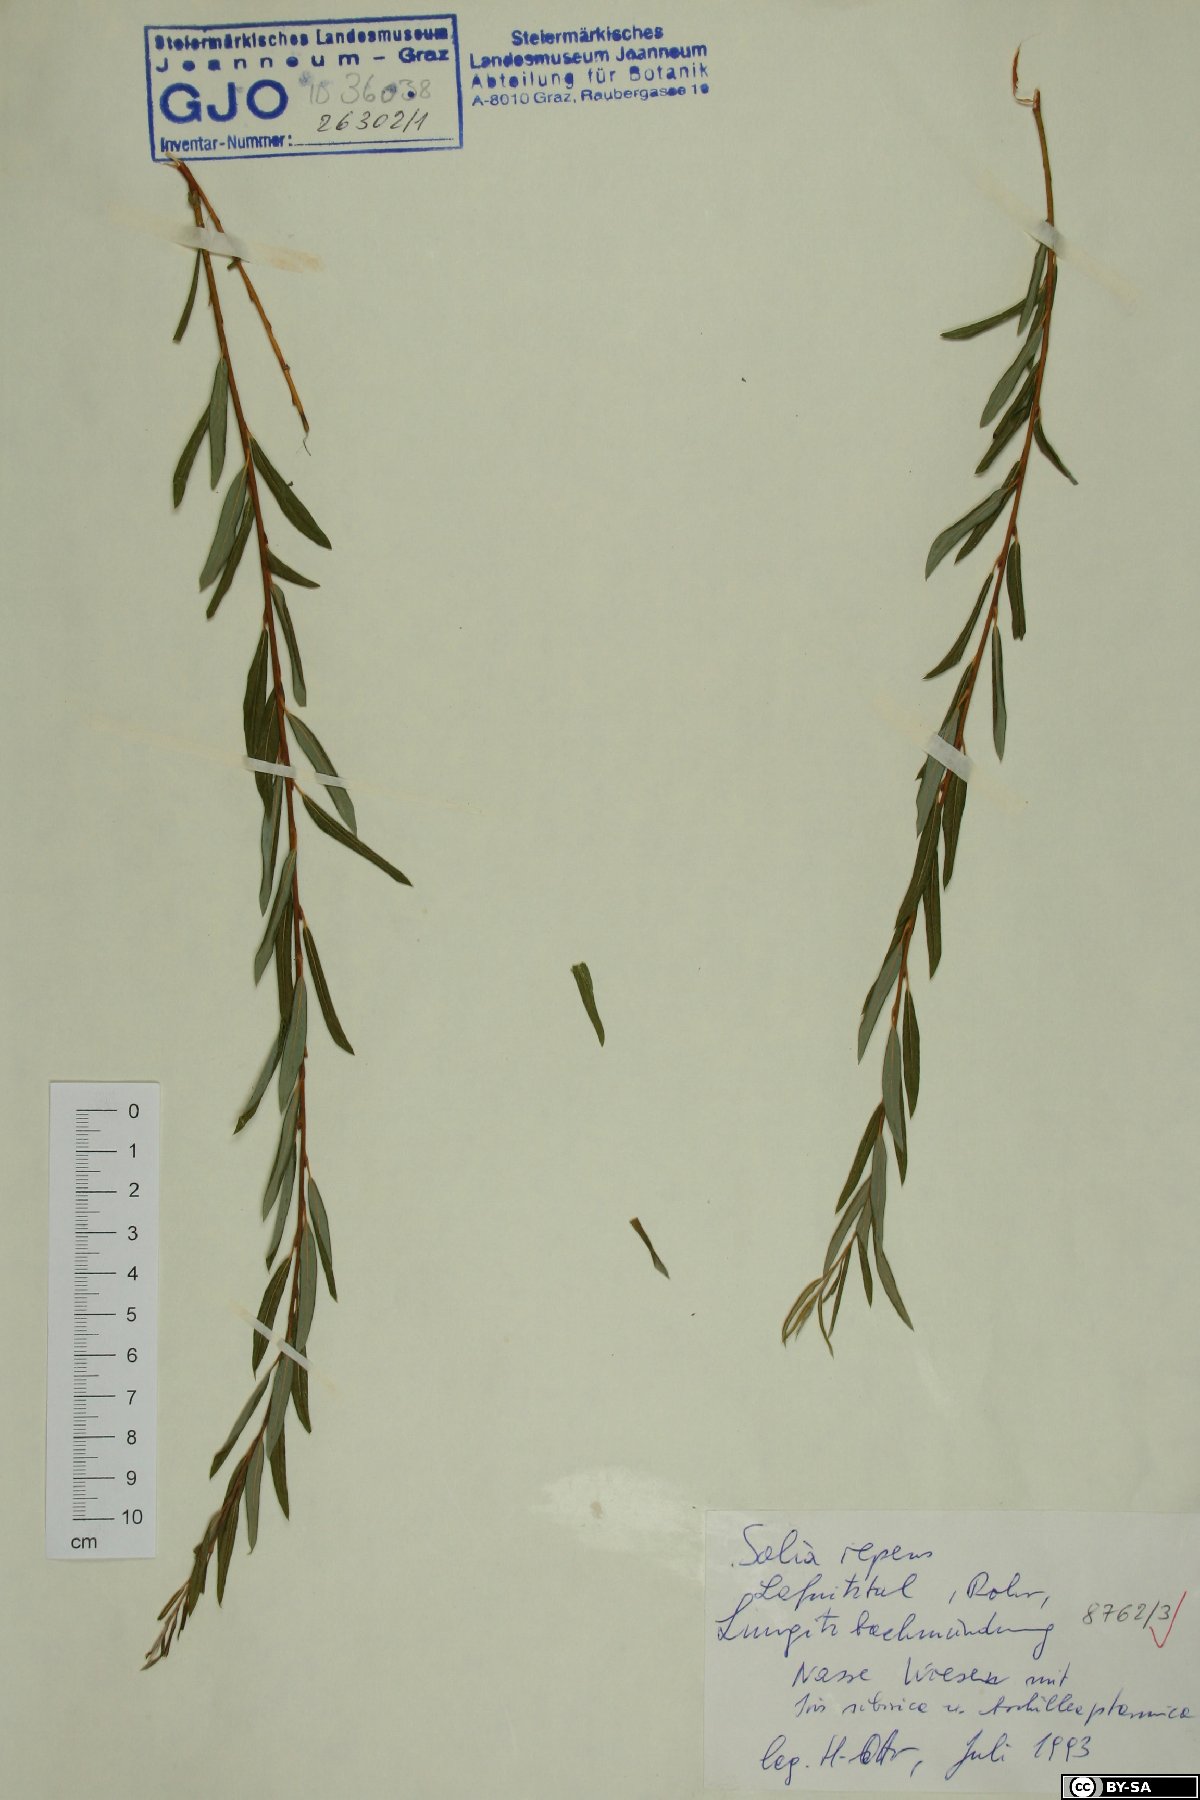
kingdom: Plantae
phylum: Tracheophyta
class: Magnoliopsida
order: Malpighiales
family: Salicaceae
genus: Salix
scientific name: Salix repens
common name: Creeping willow
